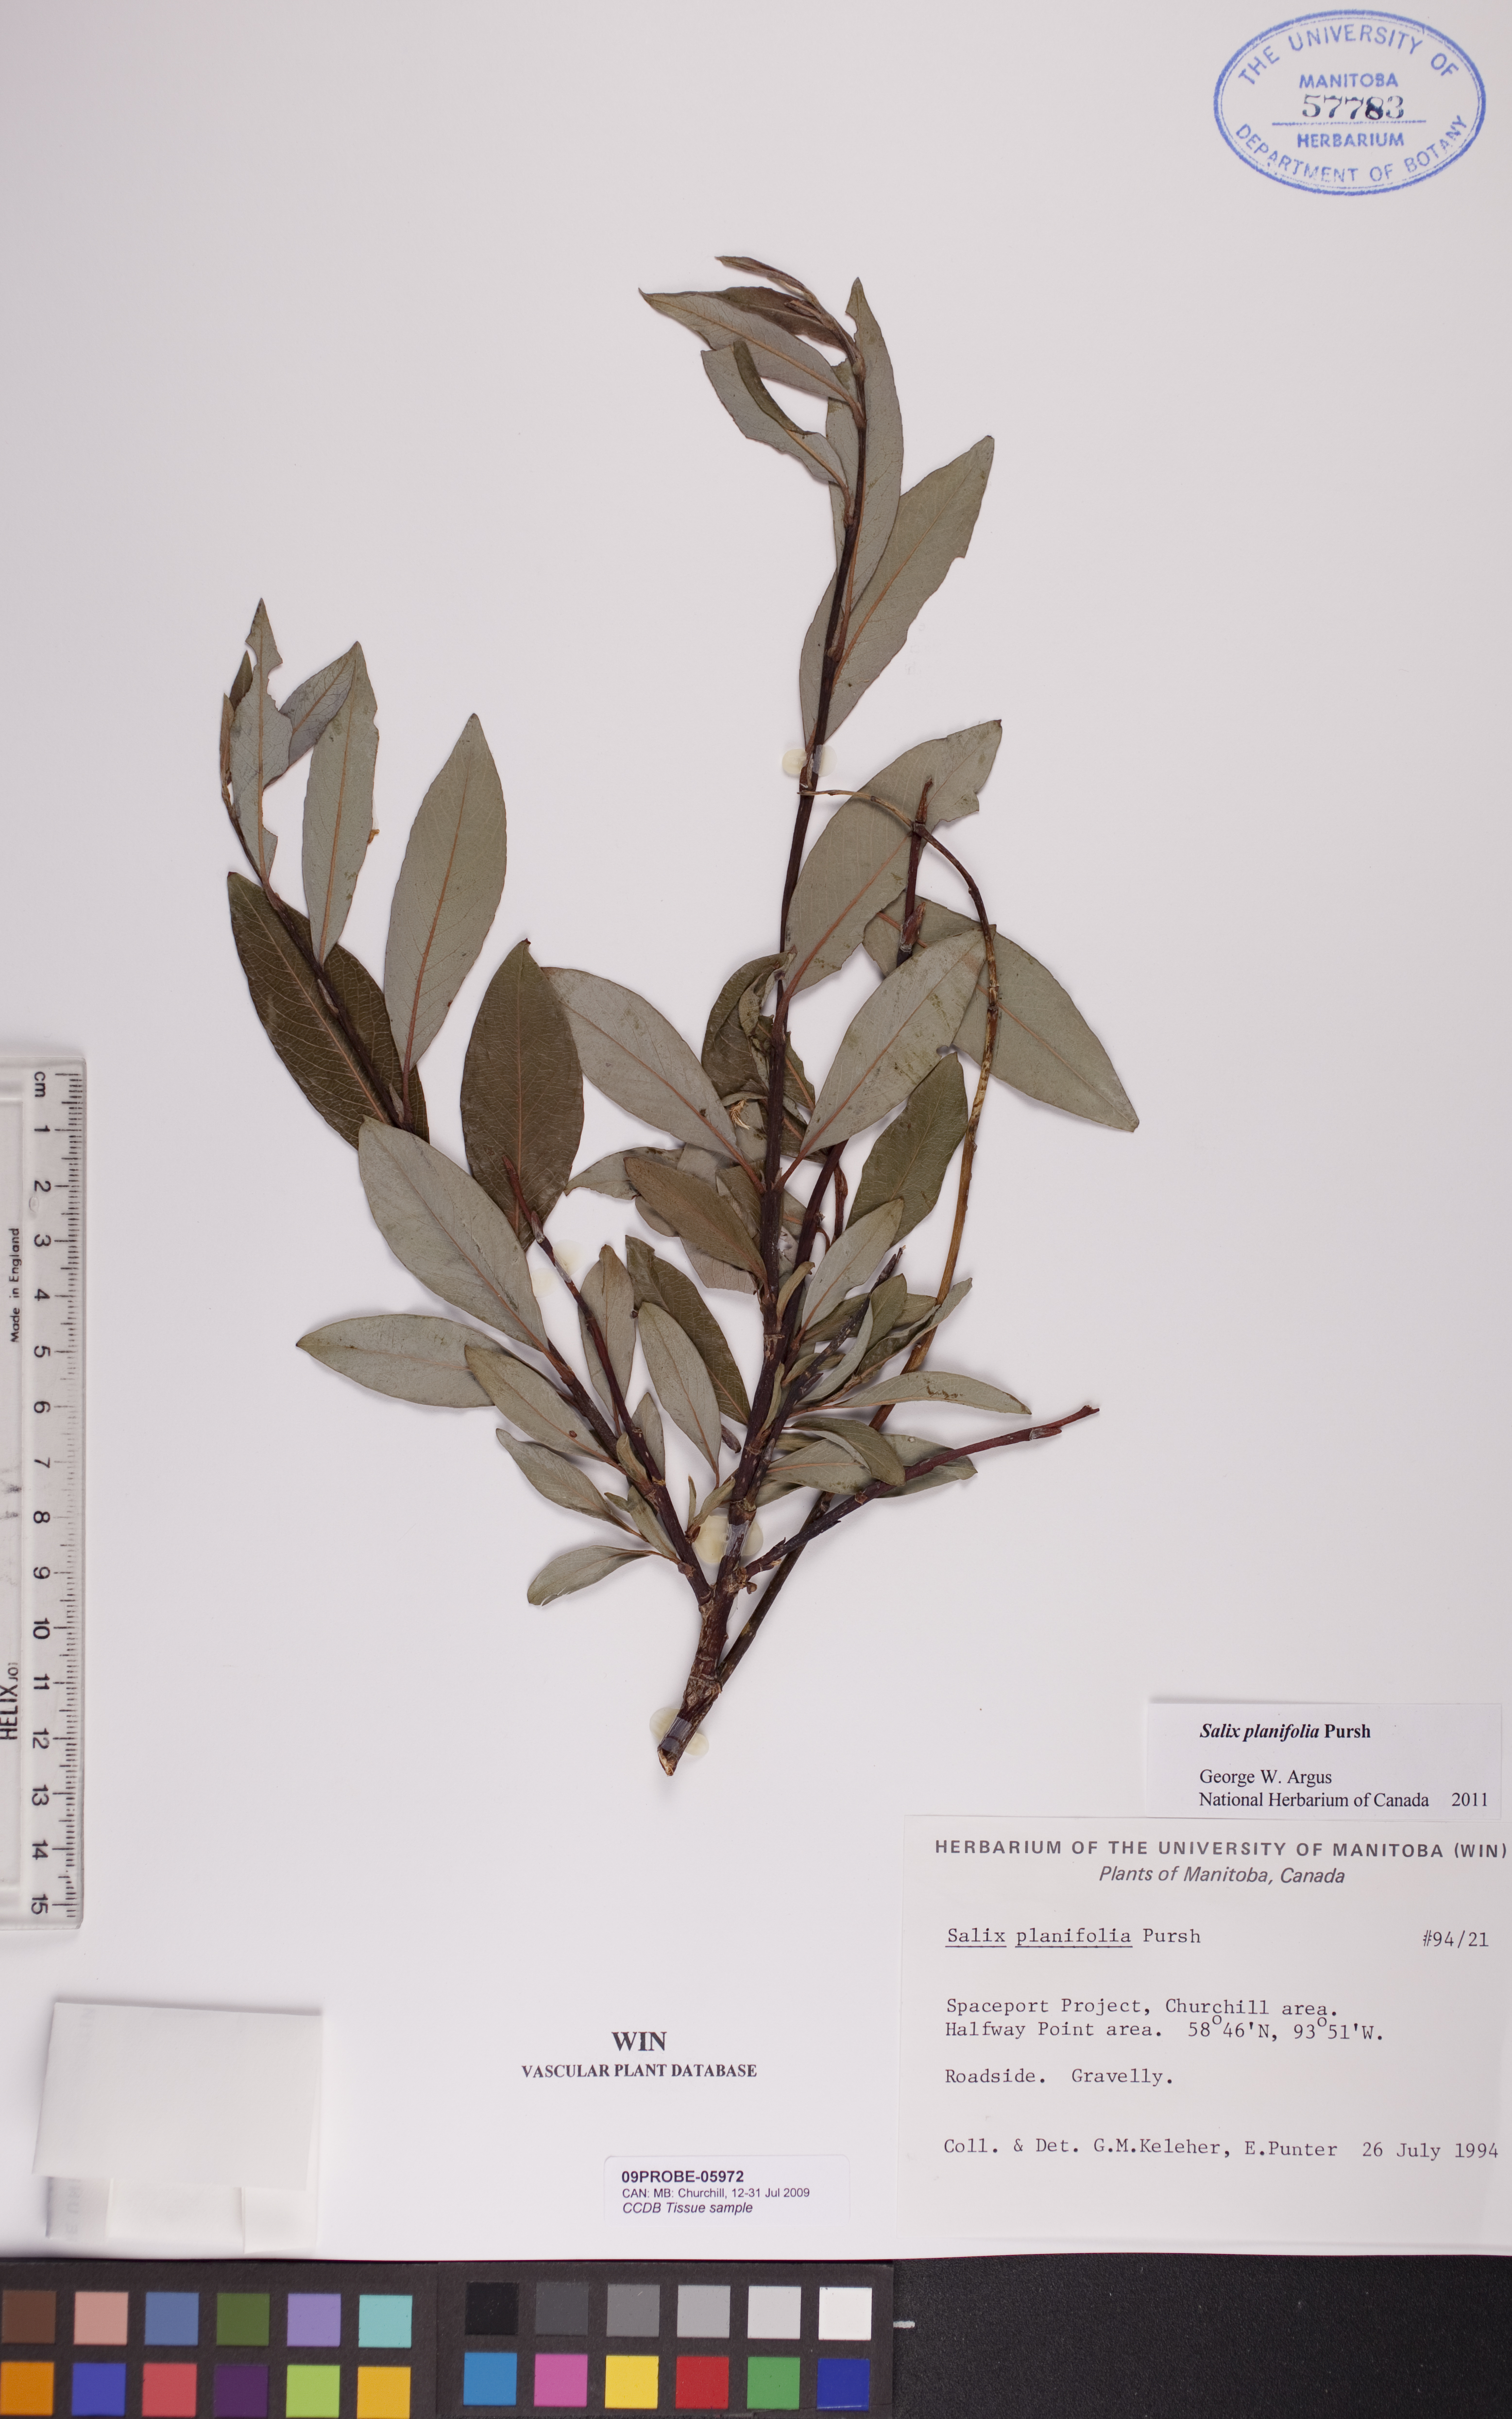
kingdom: Plantae
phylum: Tracheophyta
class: Magnoliopsida
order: Malpighiales
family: Salicaceae
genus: Salix
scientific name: Salix planifolia
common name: Mountain willow
